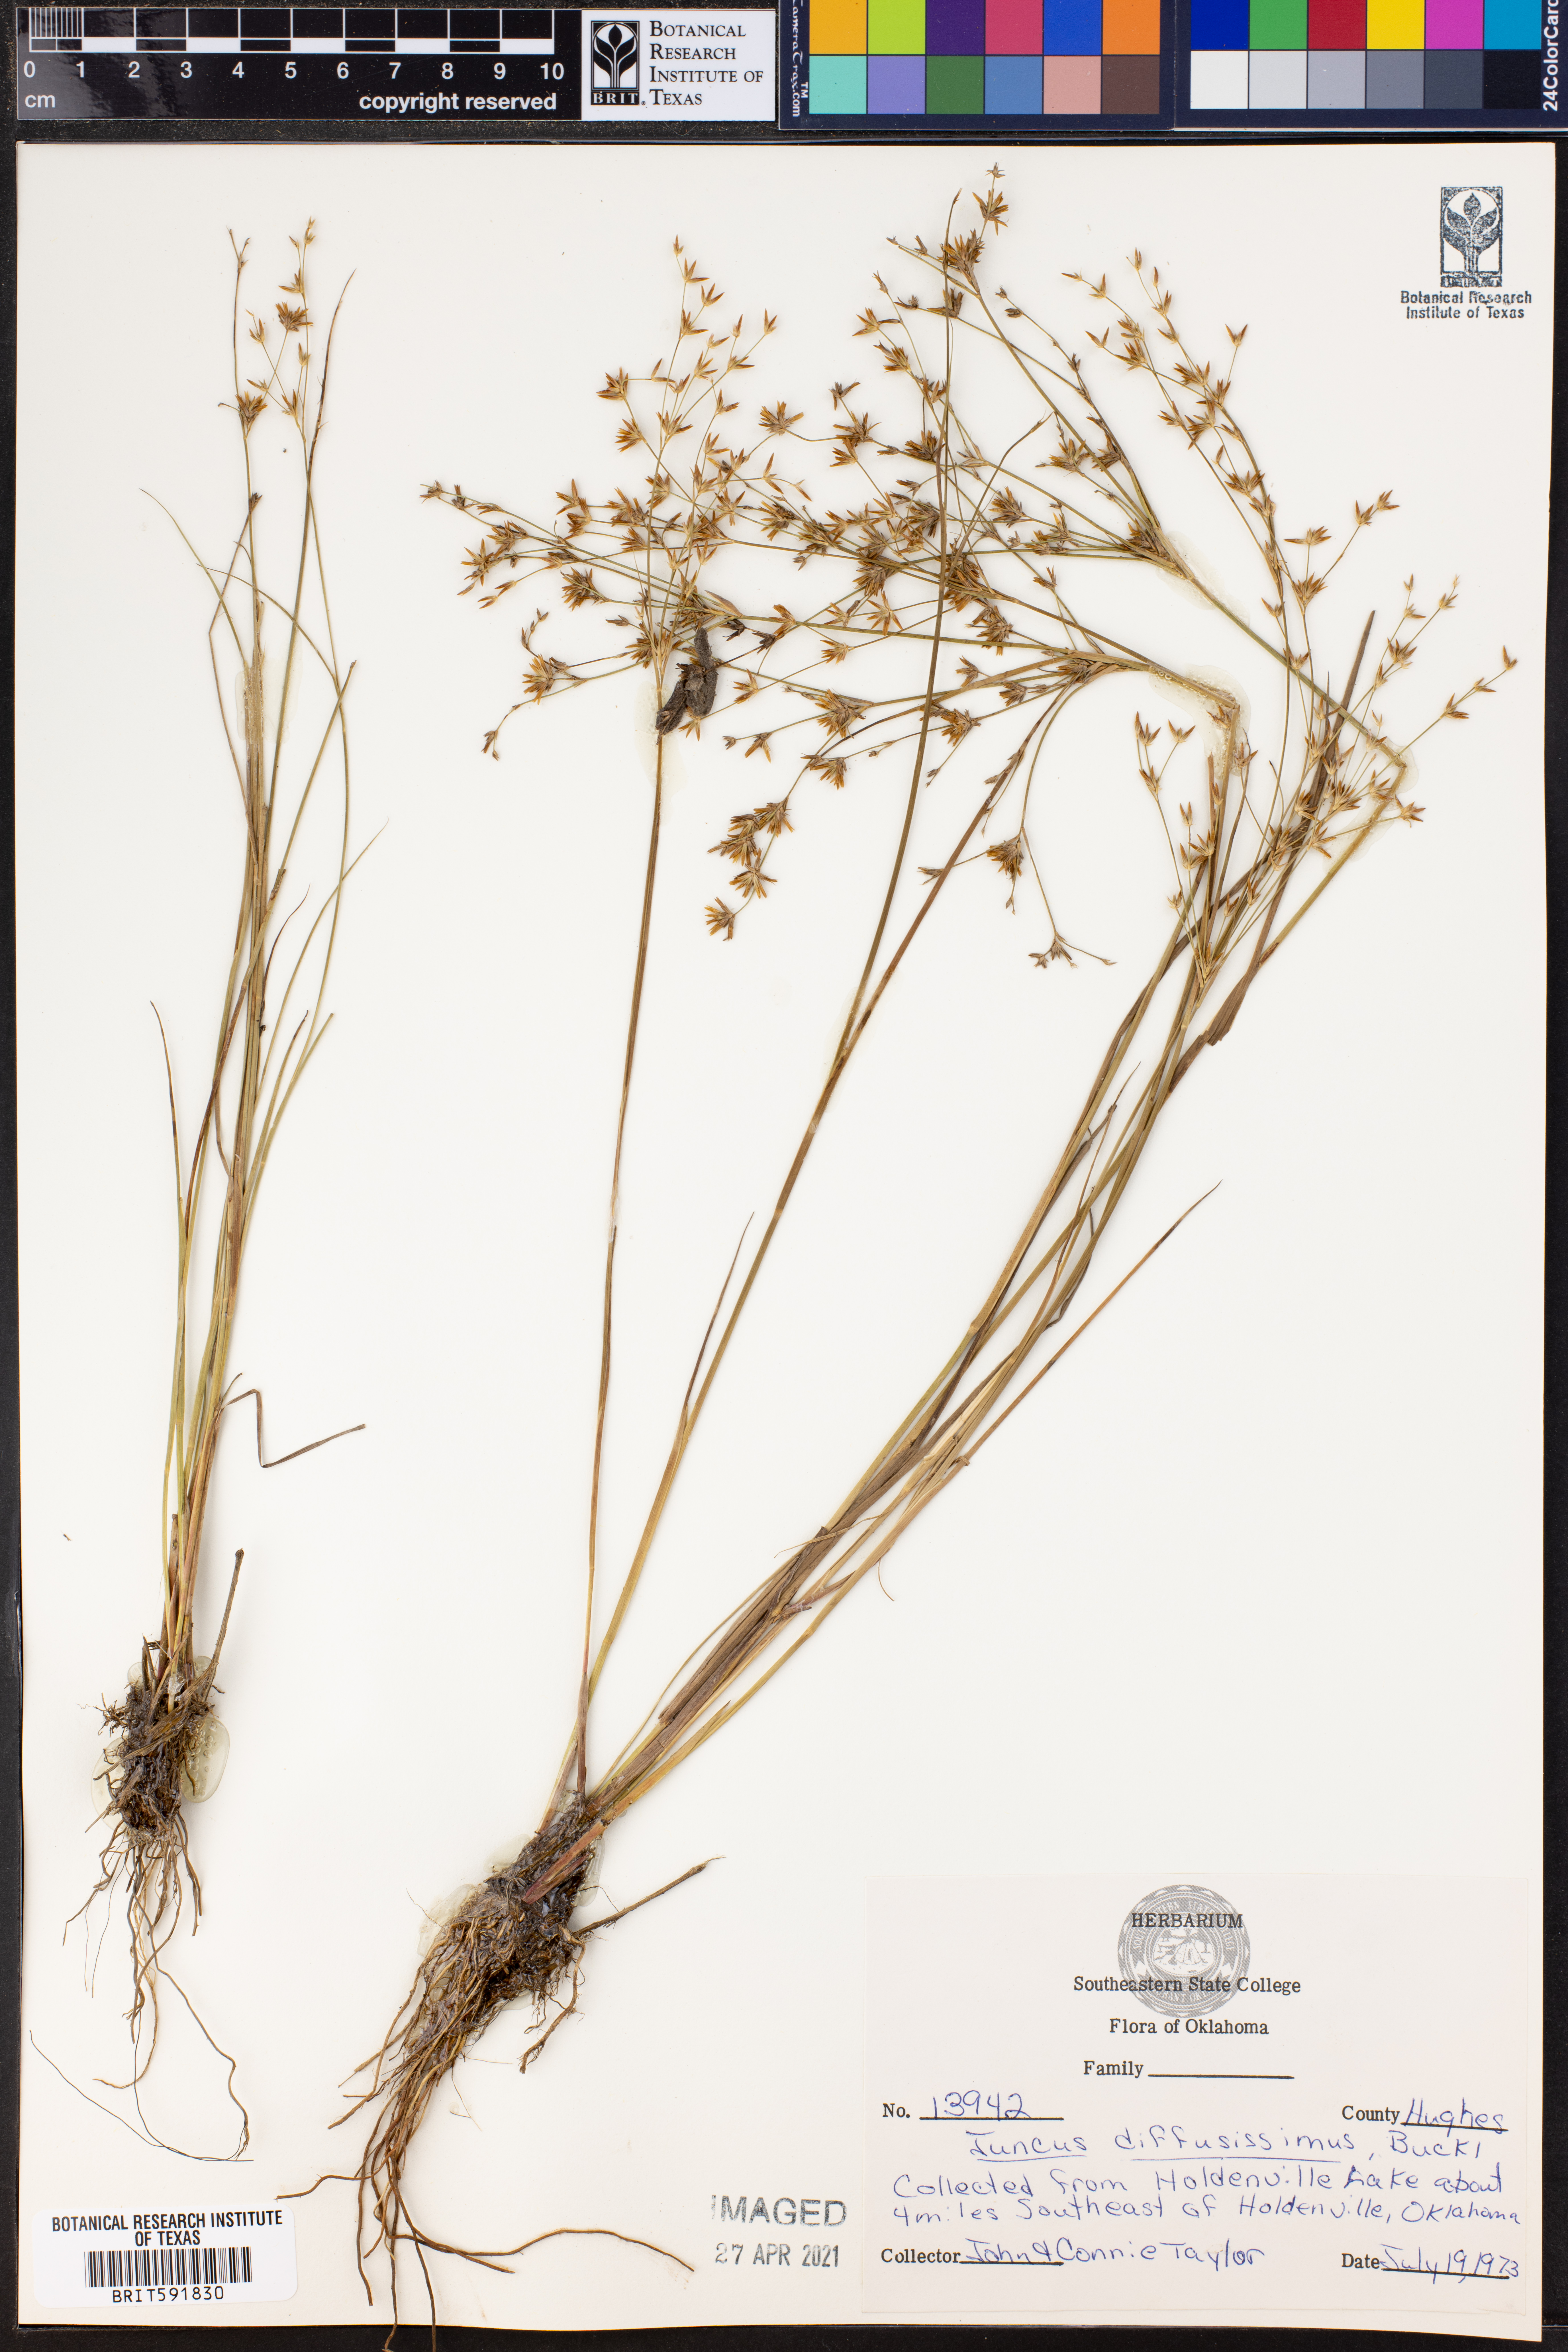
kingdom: Plantae
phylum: Tracheophyta
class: Liliopsida
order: Poales
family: Juncaceae
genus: Juncus
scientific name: Juncus diffusissimus
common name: Slimpod rush
